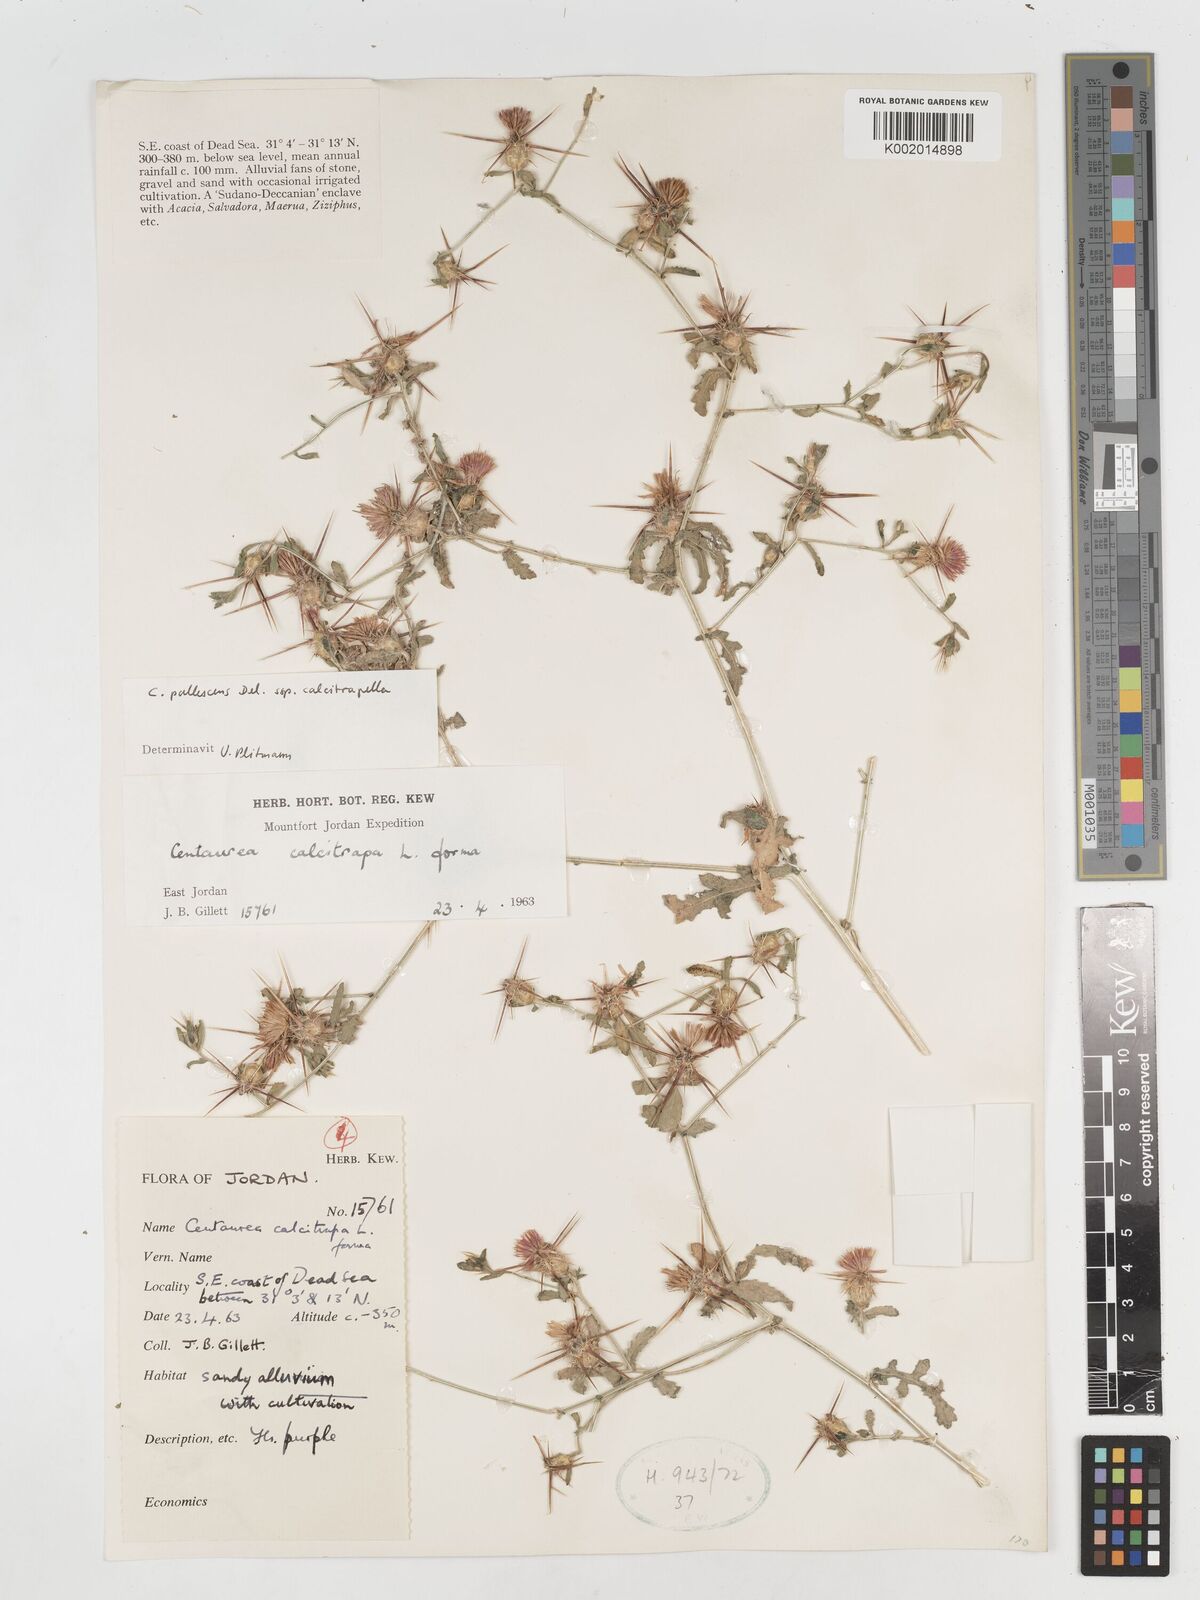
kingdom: Plantae
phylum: Tracheophyta
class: Magnoliopsida
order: Asterales
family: Asteraceae
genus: Centaurea
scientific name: Centaurea pallescens
